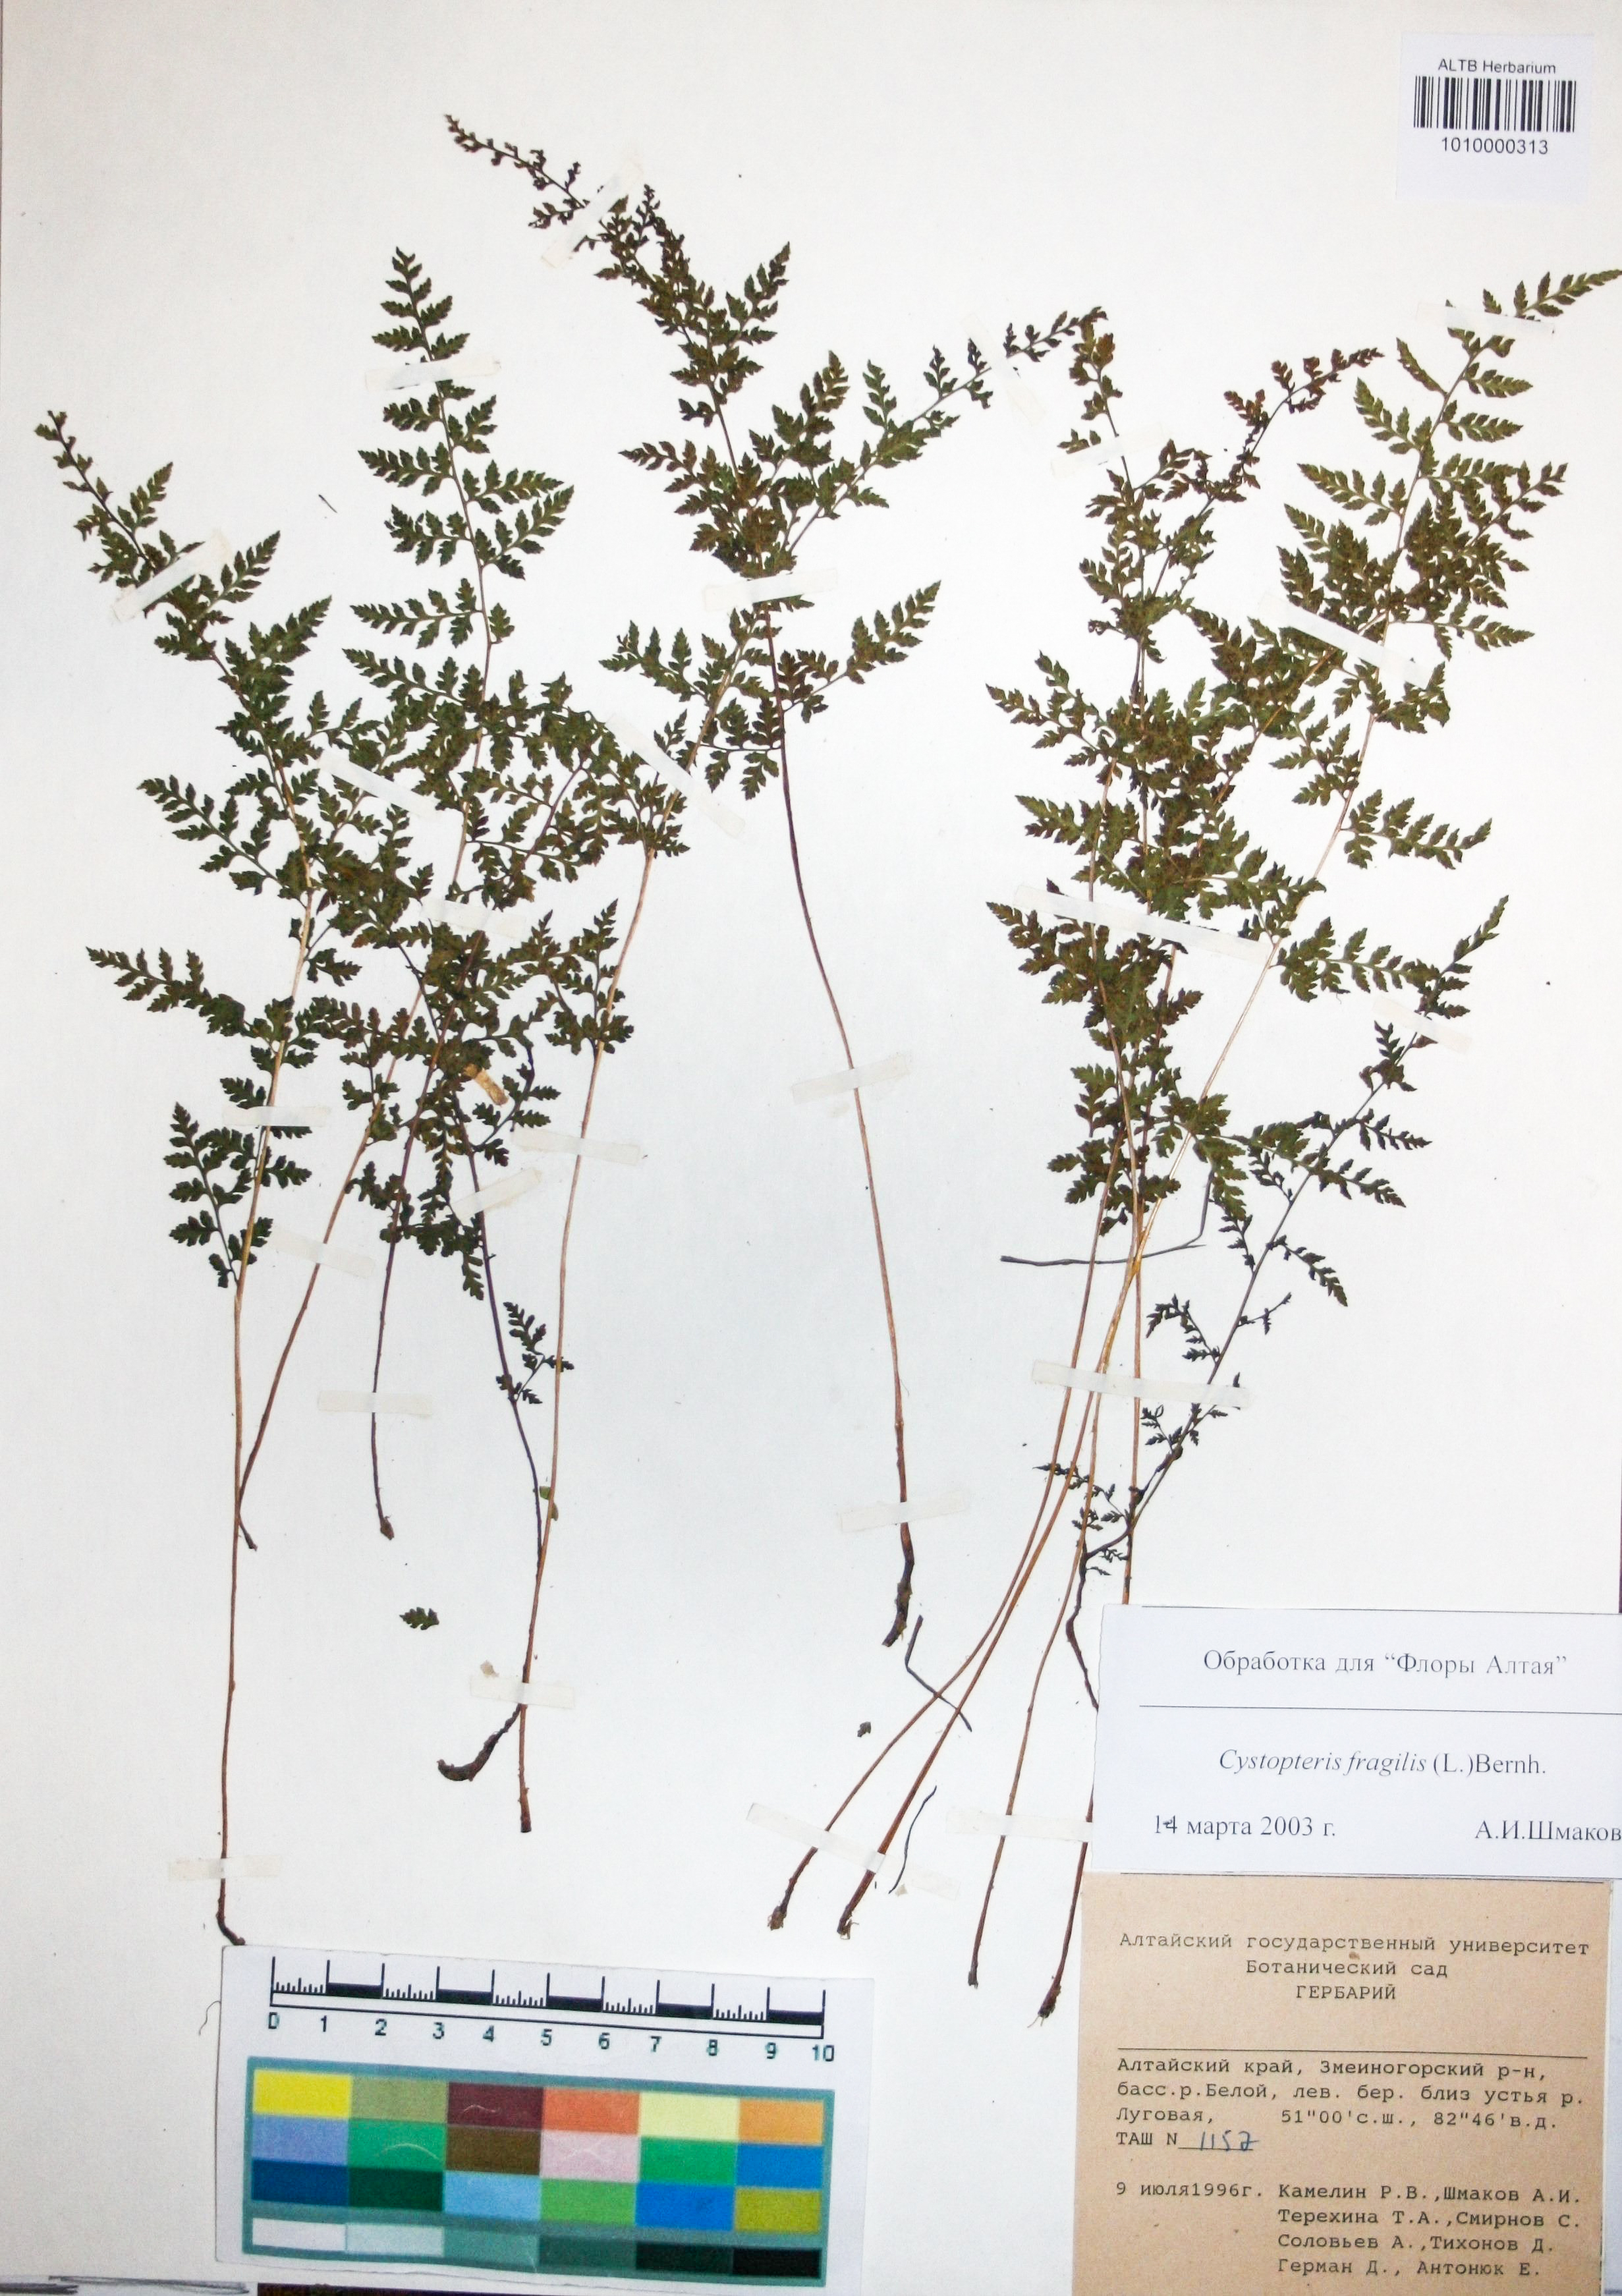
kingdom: Plantae
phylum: Tracheophyta
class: Polypodiopsida
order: Polypodiales
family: Cystopteridaceae
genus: Cystopteris
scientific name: Cystopteris fragilis
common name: Brittle bladder fern
